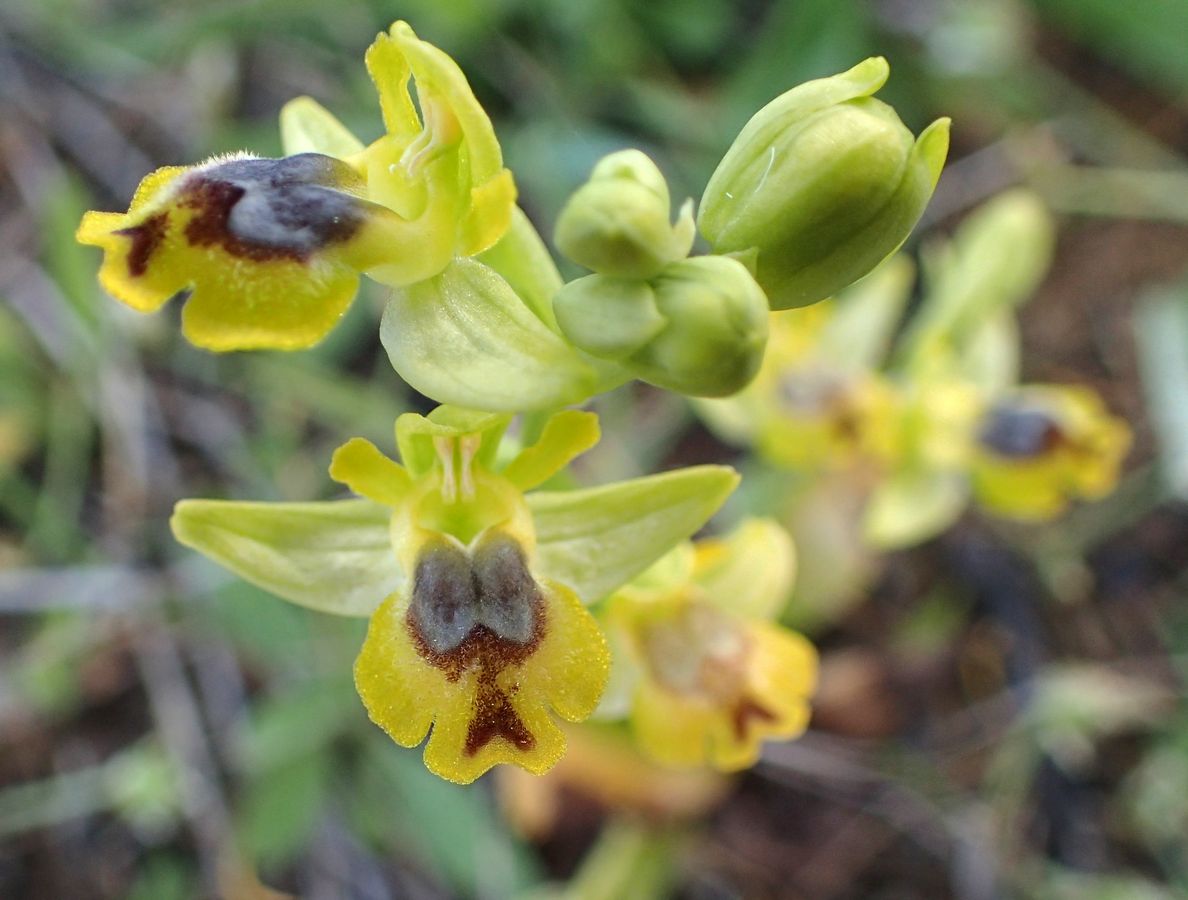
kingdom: Plantae
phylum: Tracheophyta
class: Liliopsida
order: Asparagales
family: Orchidaceae
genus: Ophrys
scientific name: Ophrys lutea
